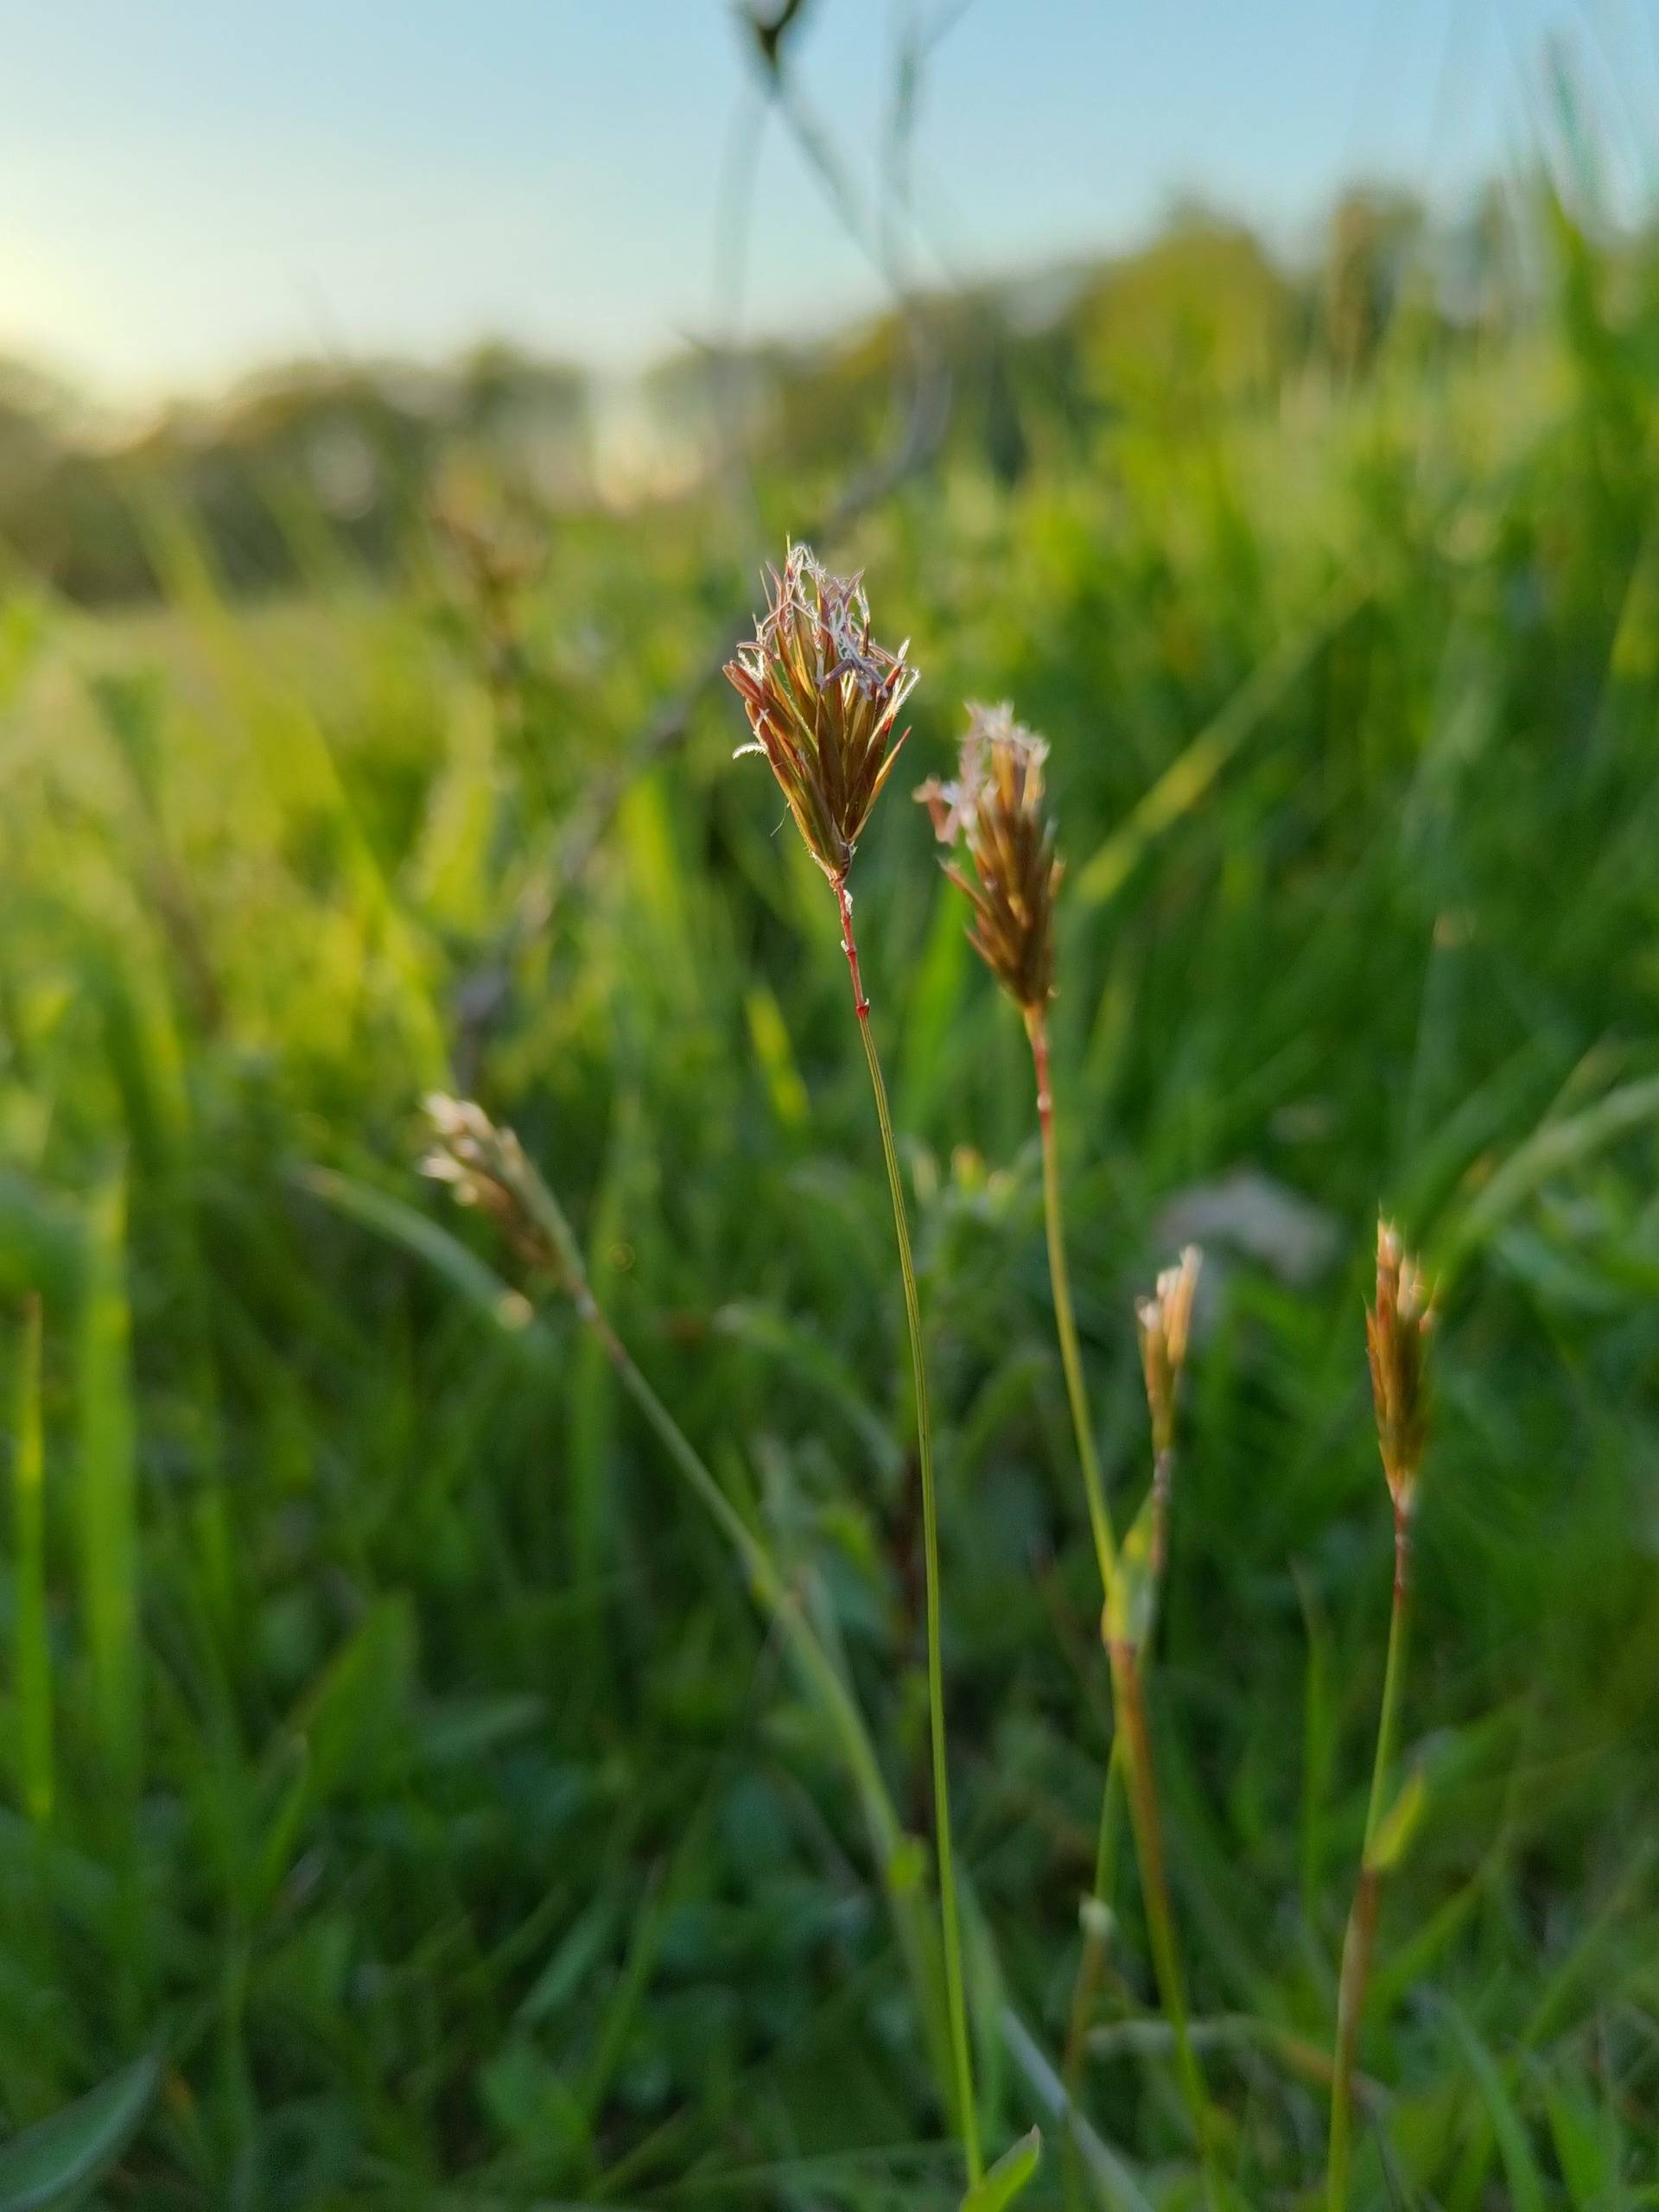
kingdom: Plantae
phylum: Tracheophyta
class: Liliopsida
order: Poales
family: Poaceae
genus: Anthoxanthum
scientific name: Anthoxanthum odoratum
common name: Vellugtende gulaks
